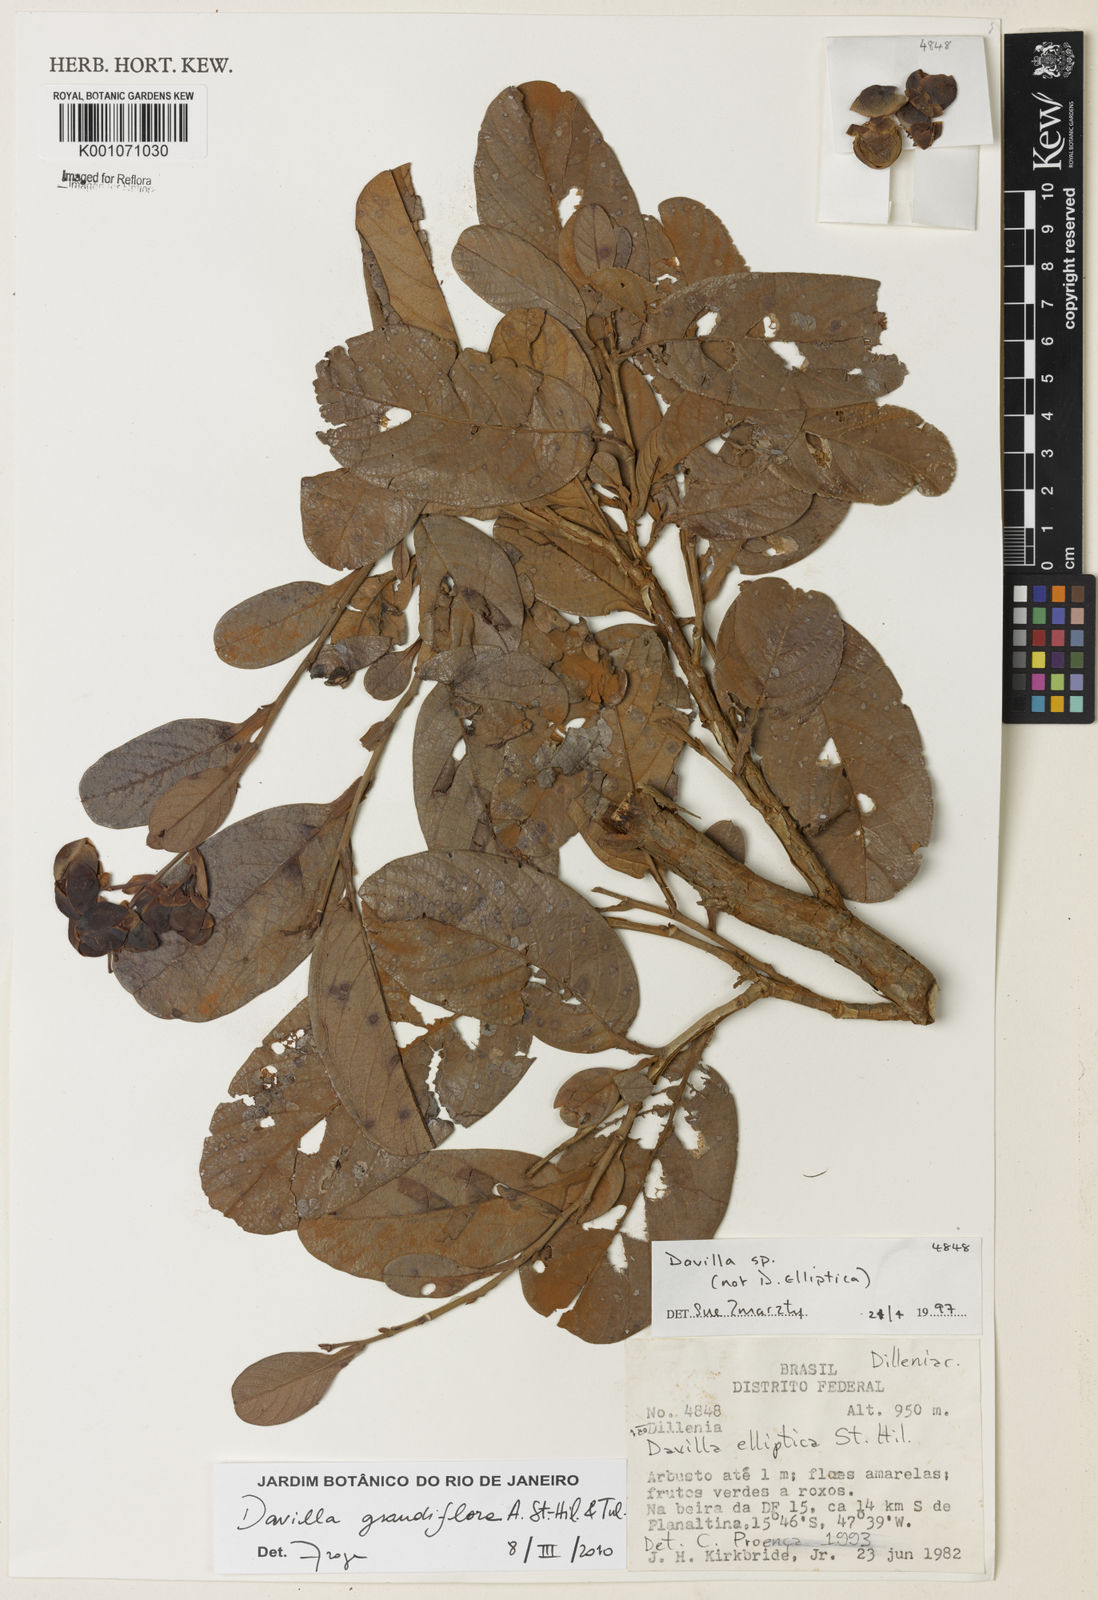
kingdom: Plantae
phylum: Tracheophyta
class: Magnoliopsida
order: Dilleniales
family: Dilleniaceae
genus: Davilla
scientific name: Davilla grandiflora
